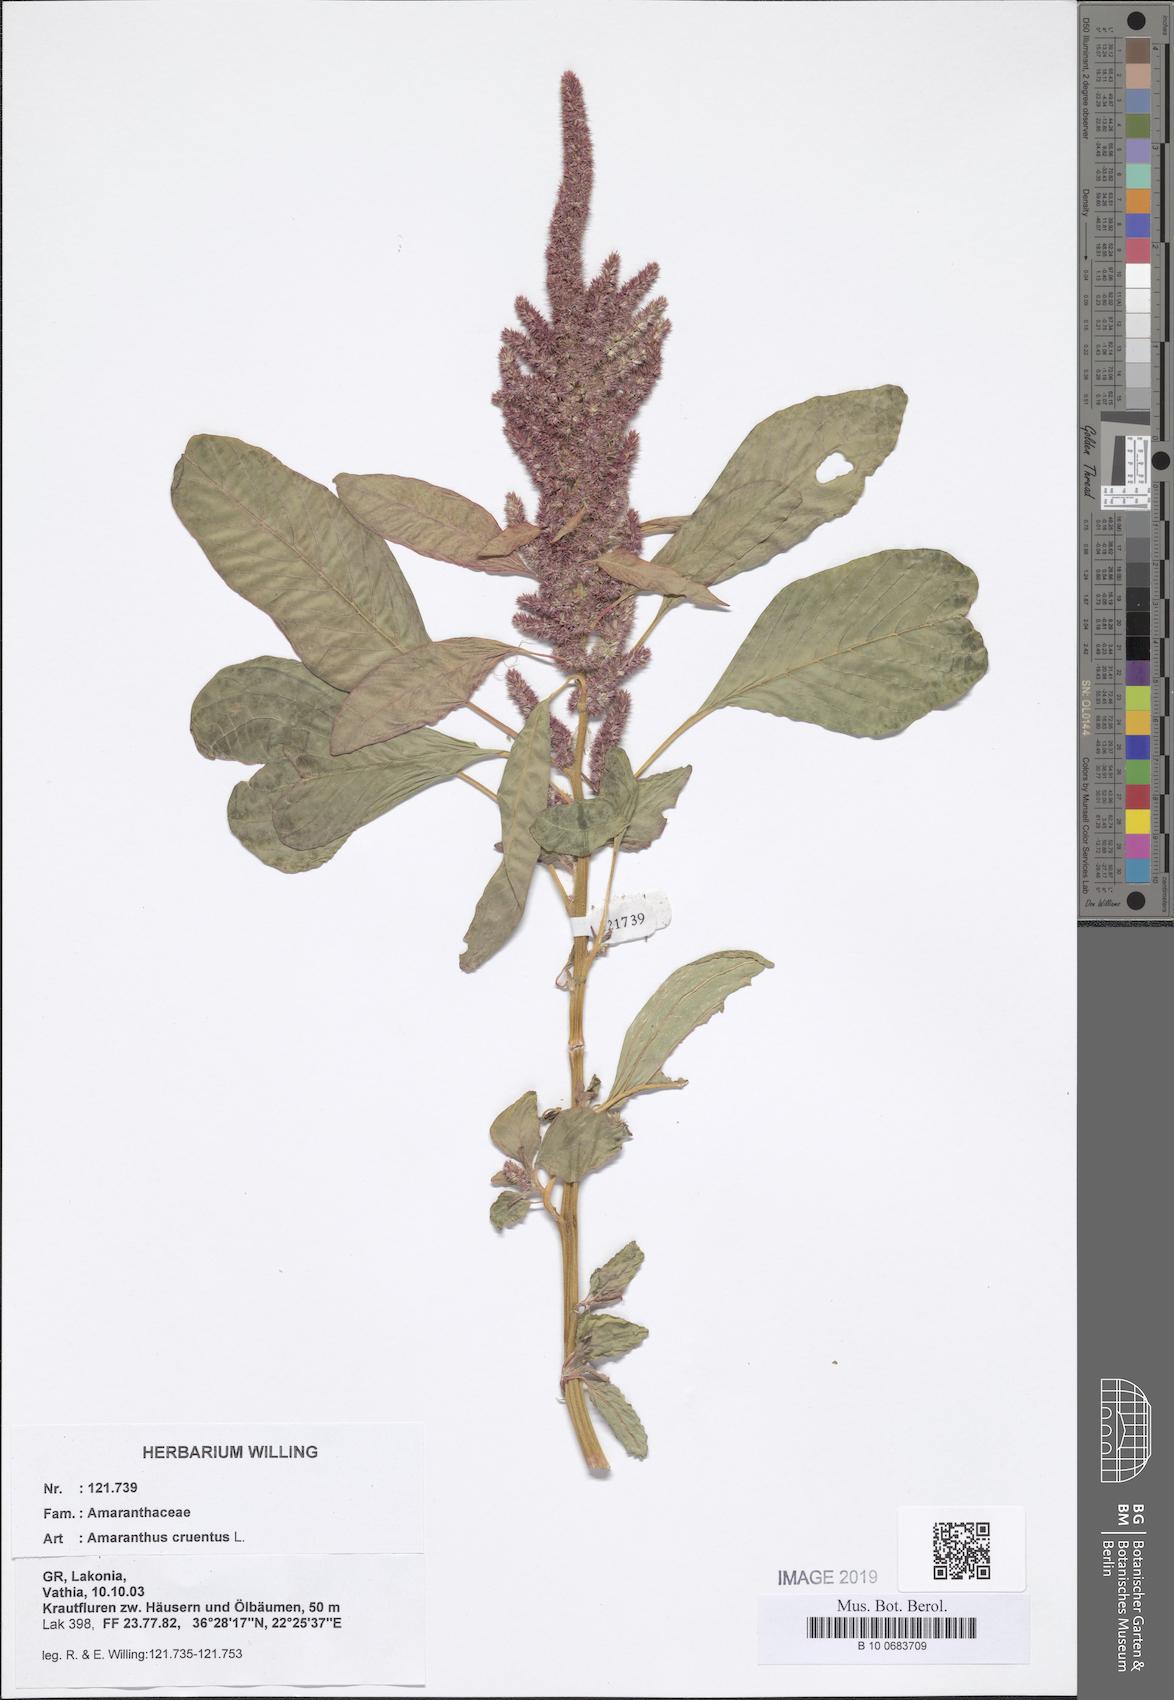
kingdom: Plantae
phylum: Tracheophyta
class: Magnoliopsida
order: Caryophyllales
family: Amaranthaceae
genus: Amaranthus
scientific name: Amaranthus cruentus
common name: Purple amaranth
